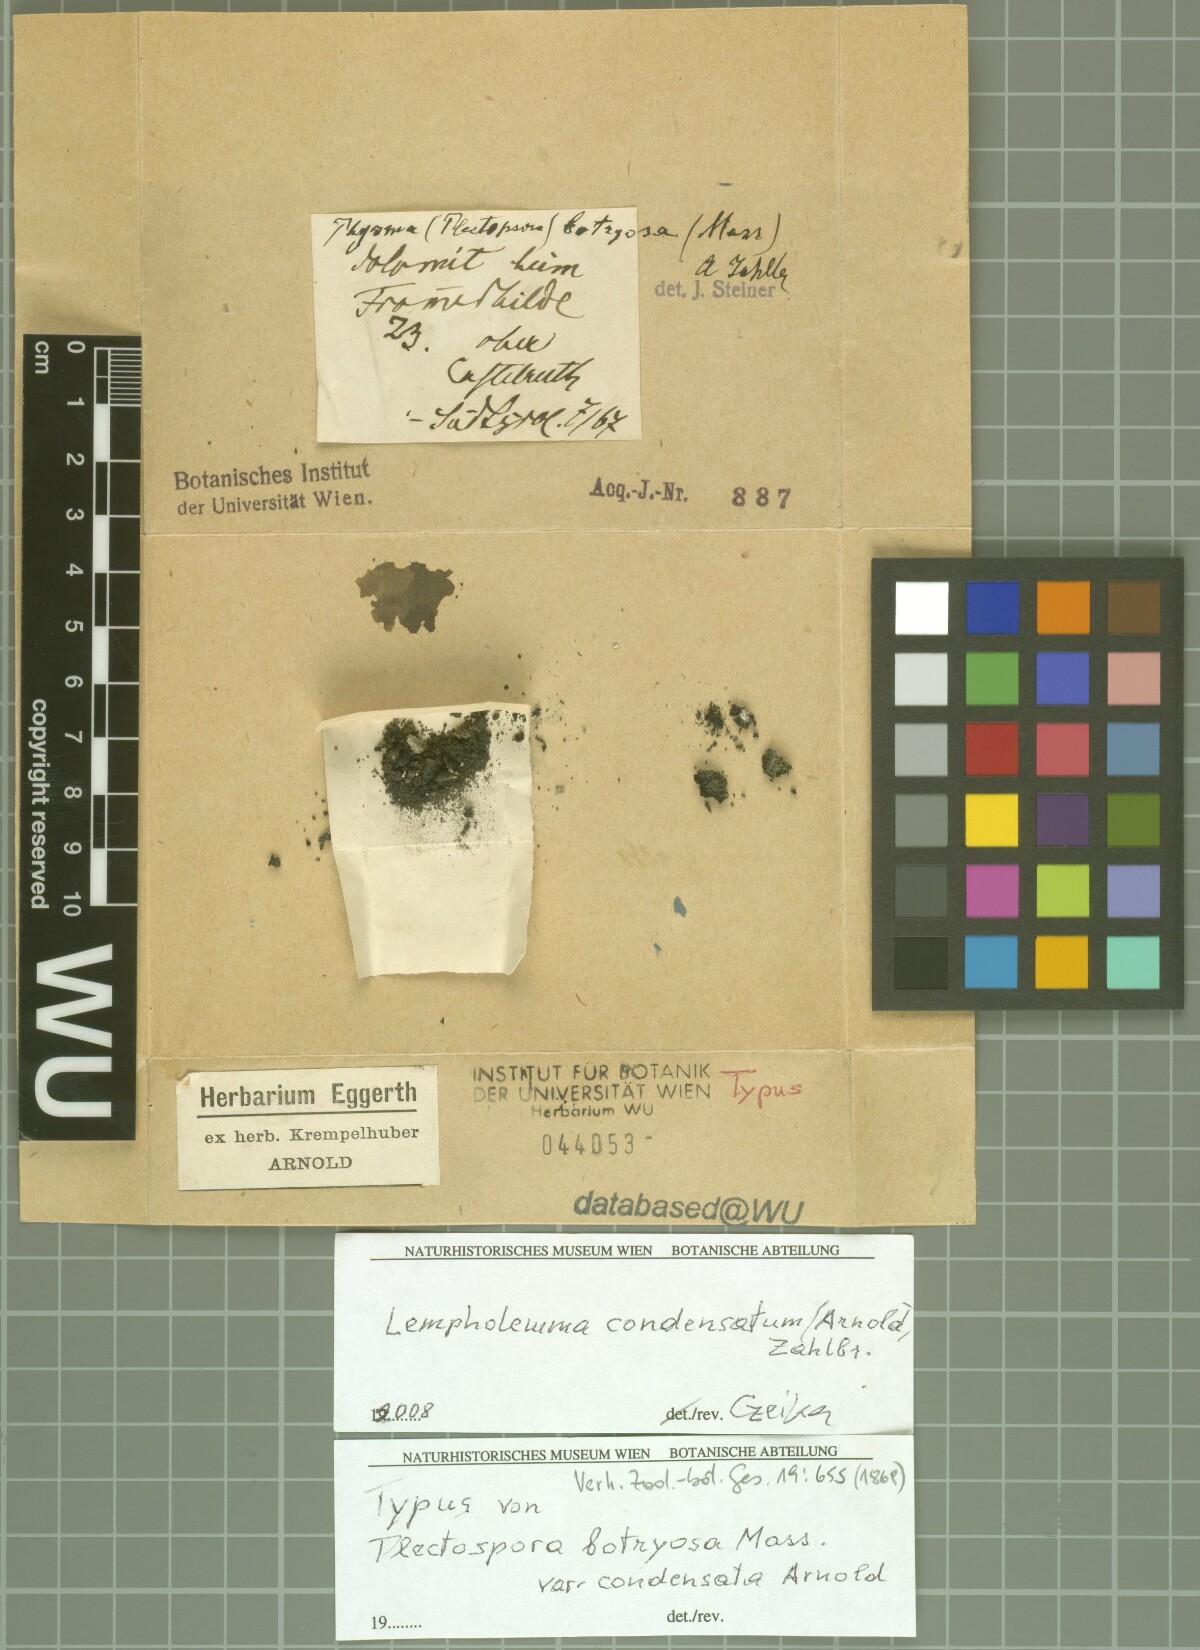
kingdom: Fungi
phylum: Ascomycota
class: Lichinomycetes
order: Lichinales
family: Lichinaceae
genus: Lempholemma
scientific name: Lempholemma intricatum
